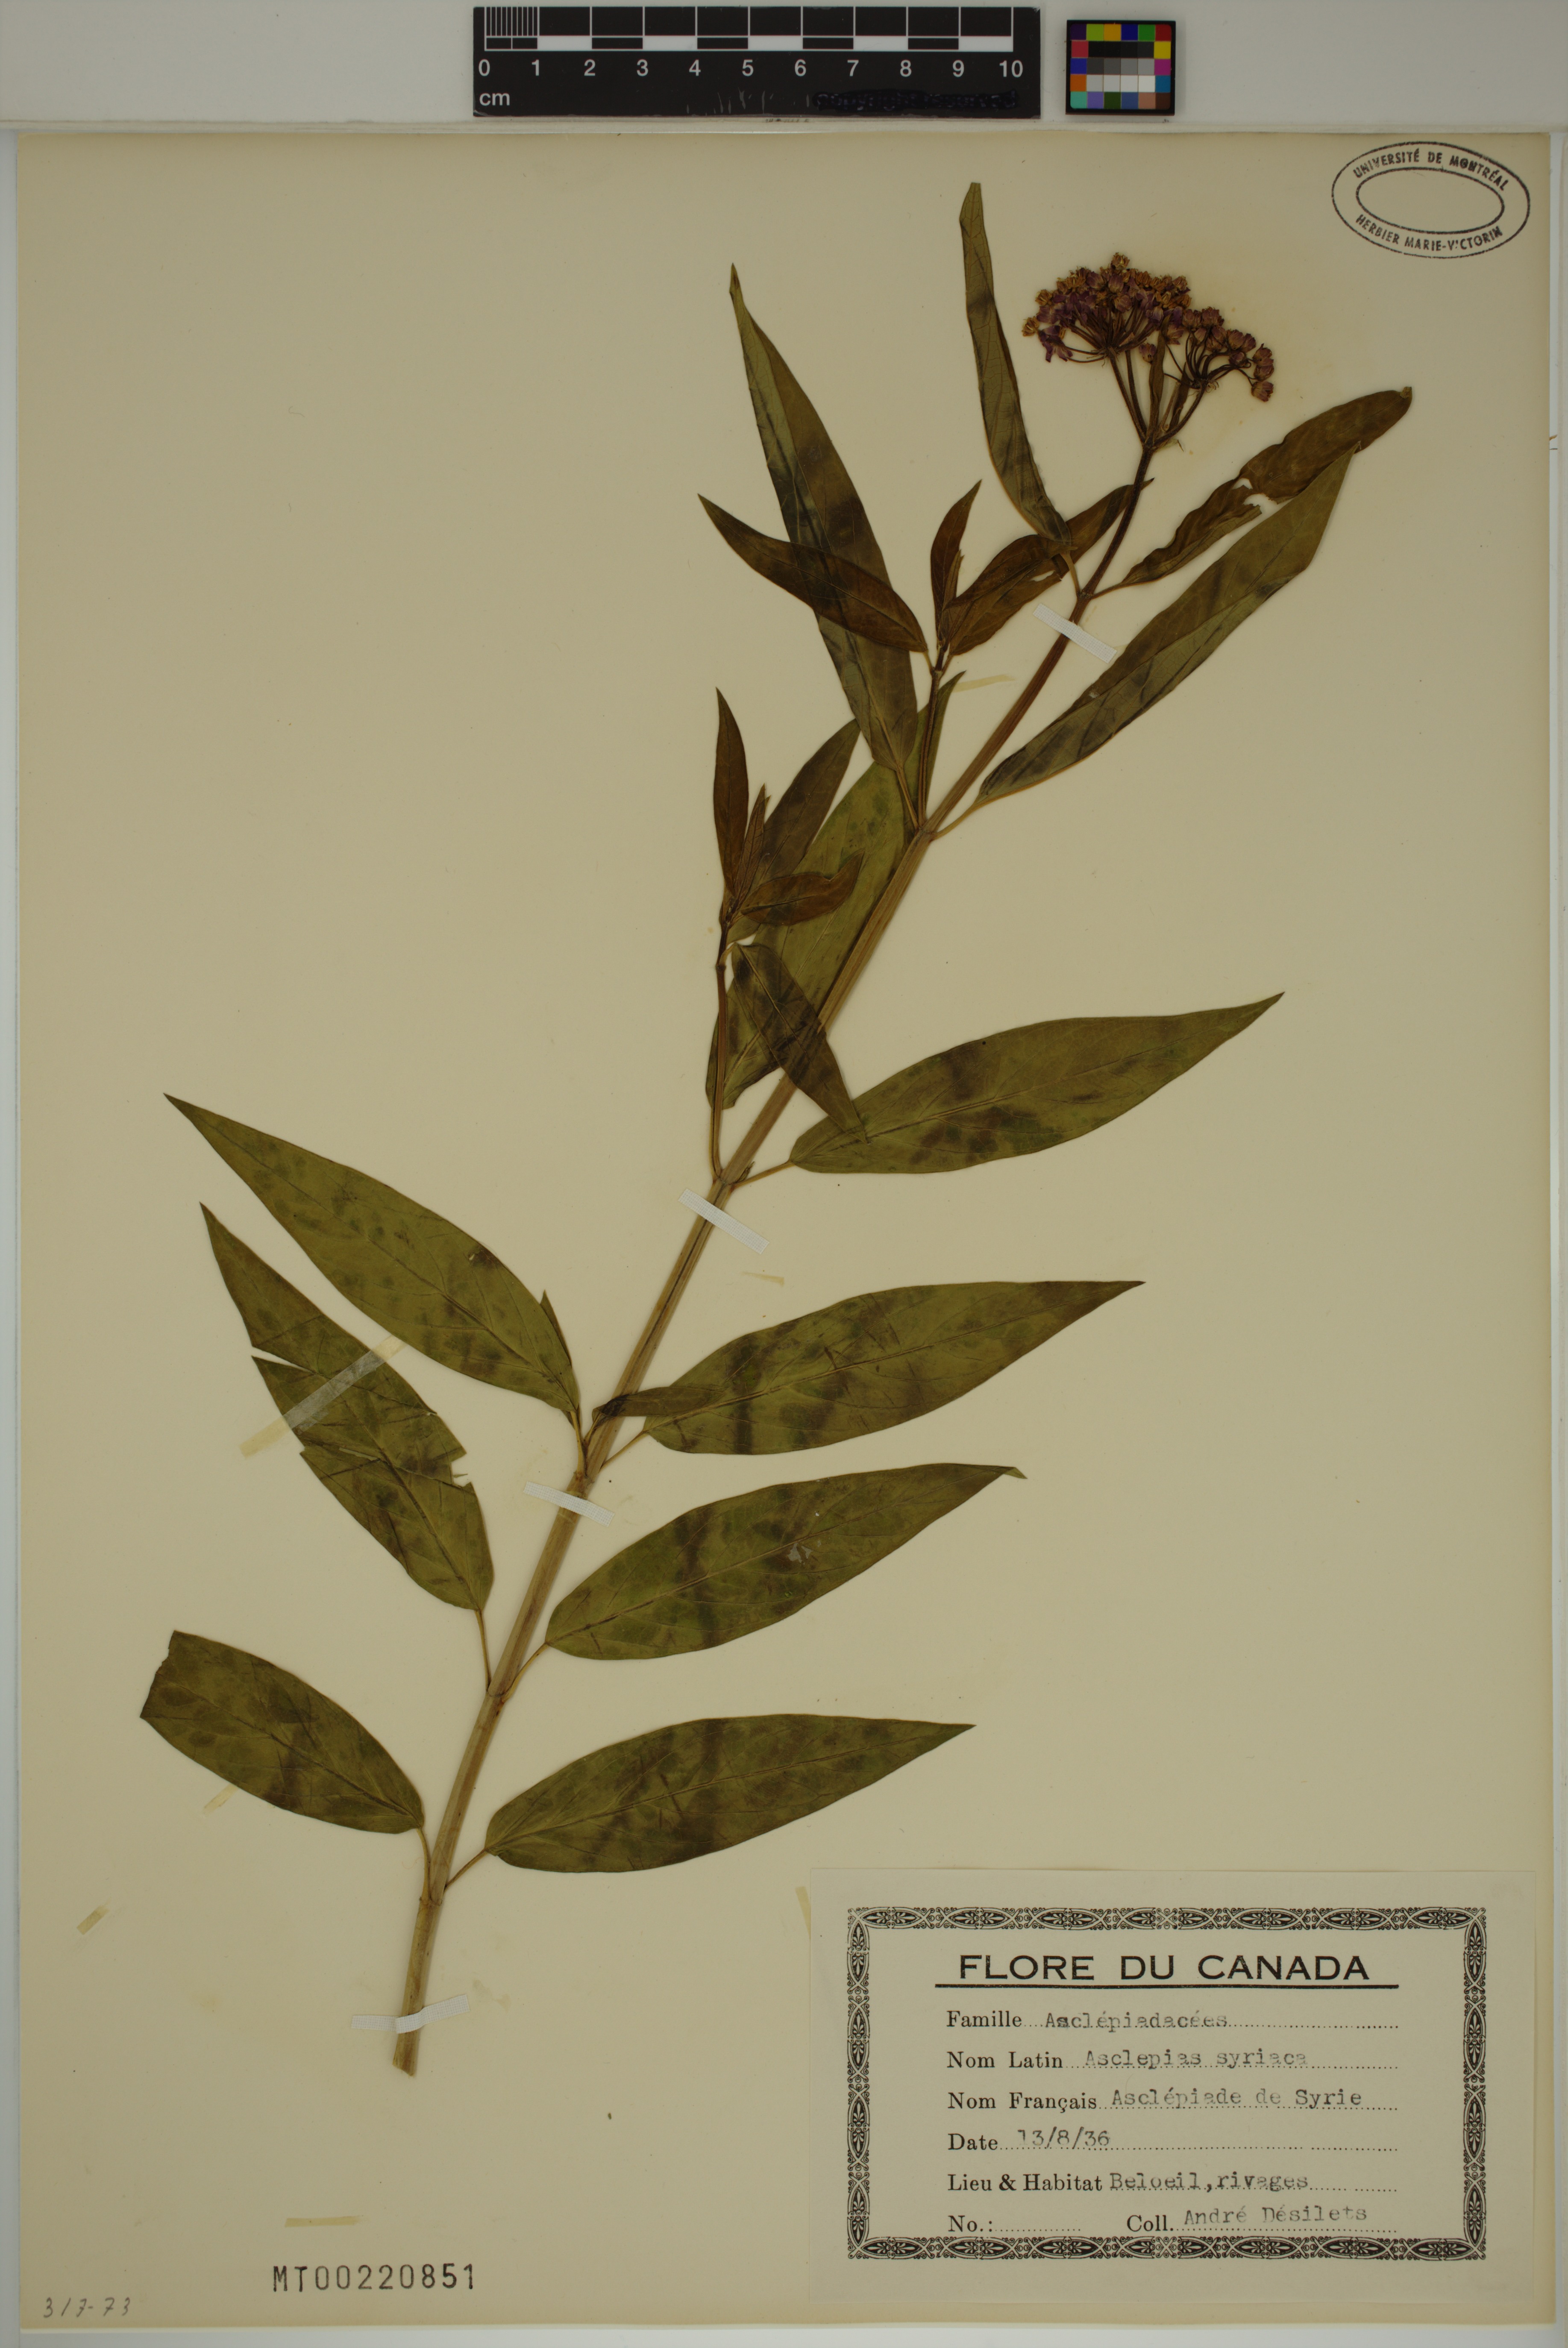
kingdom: Plantae
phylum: Tracheophyta
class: Magnoliopsida
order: Gentianales
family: Apocynaceae
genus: Asclepias
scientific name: Asclepias syriaca
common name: Common milkweed
